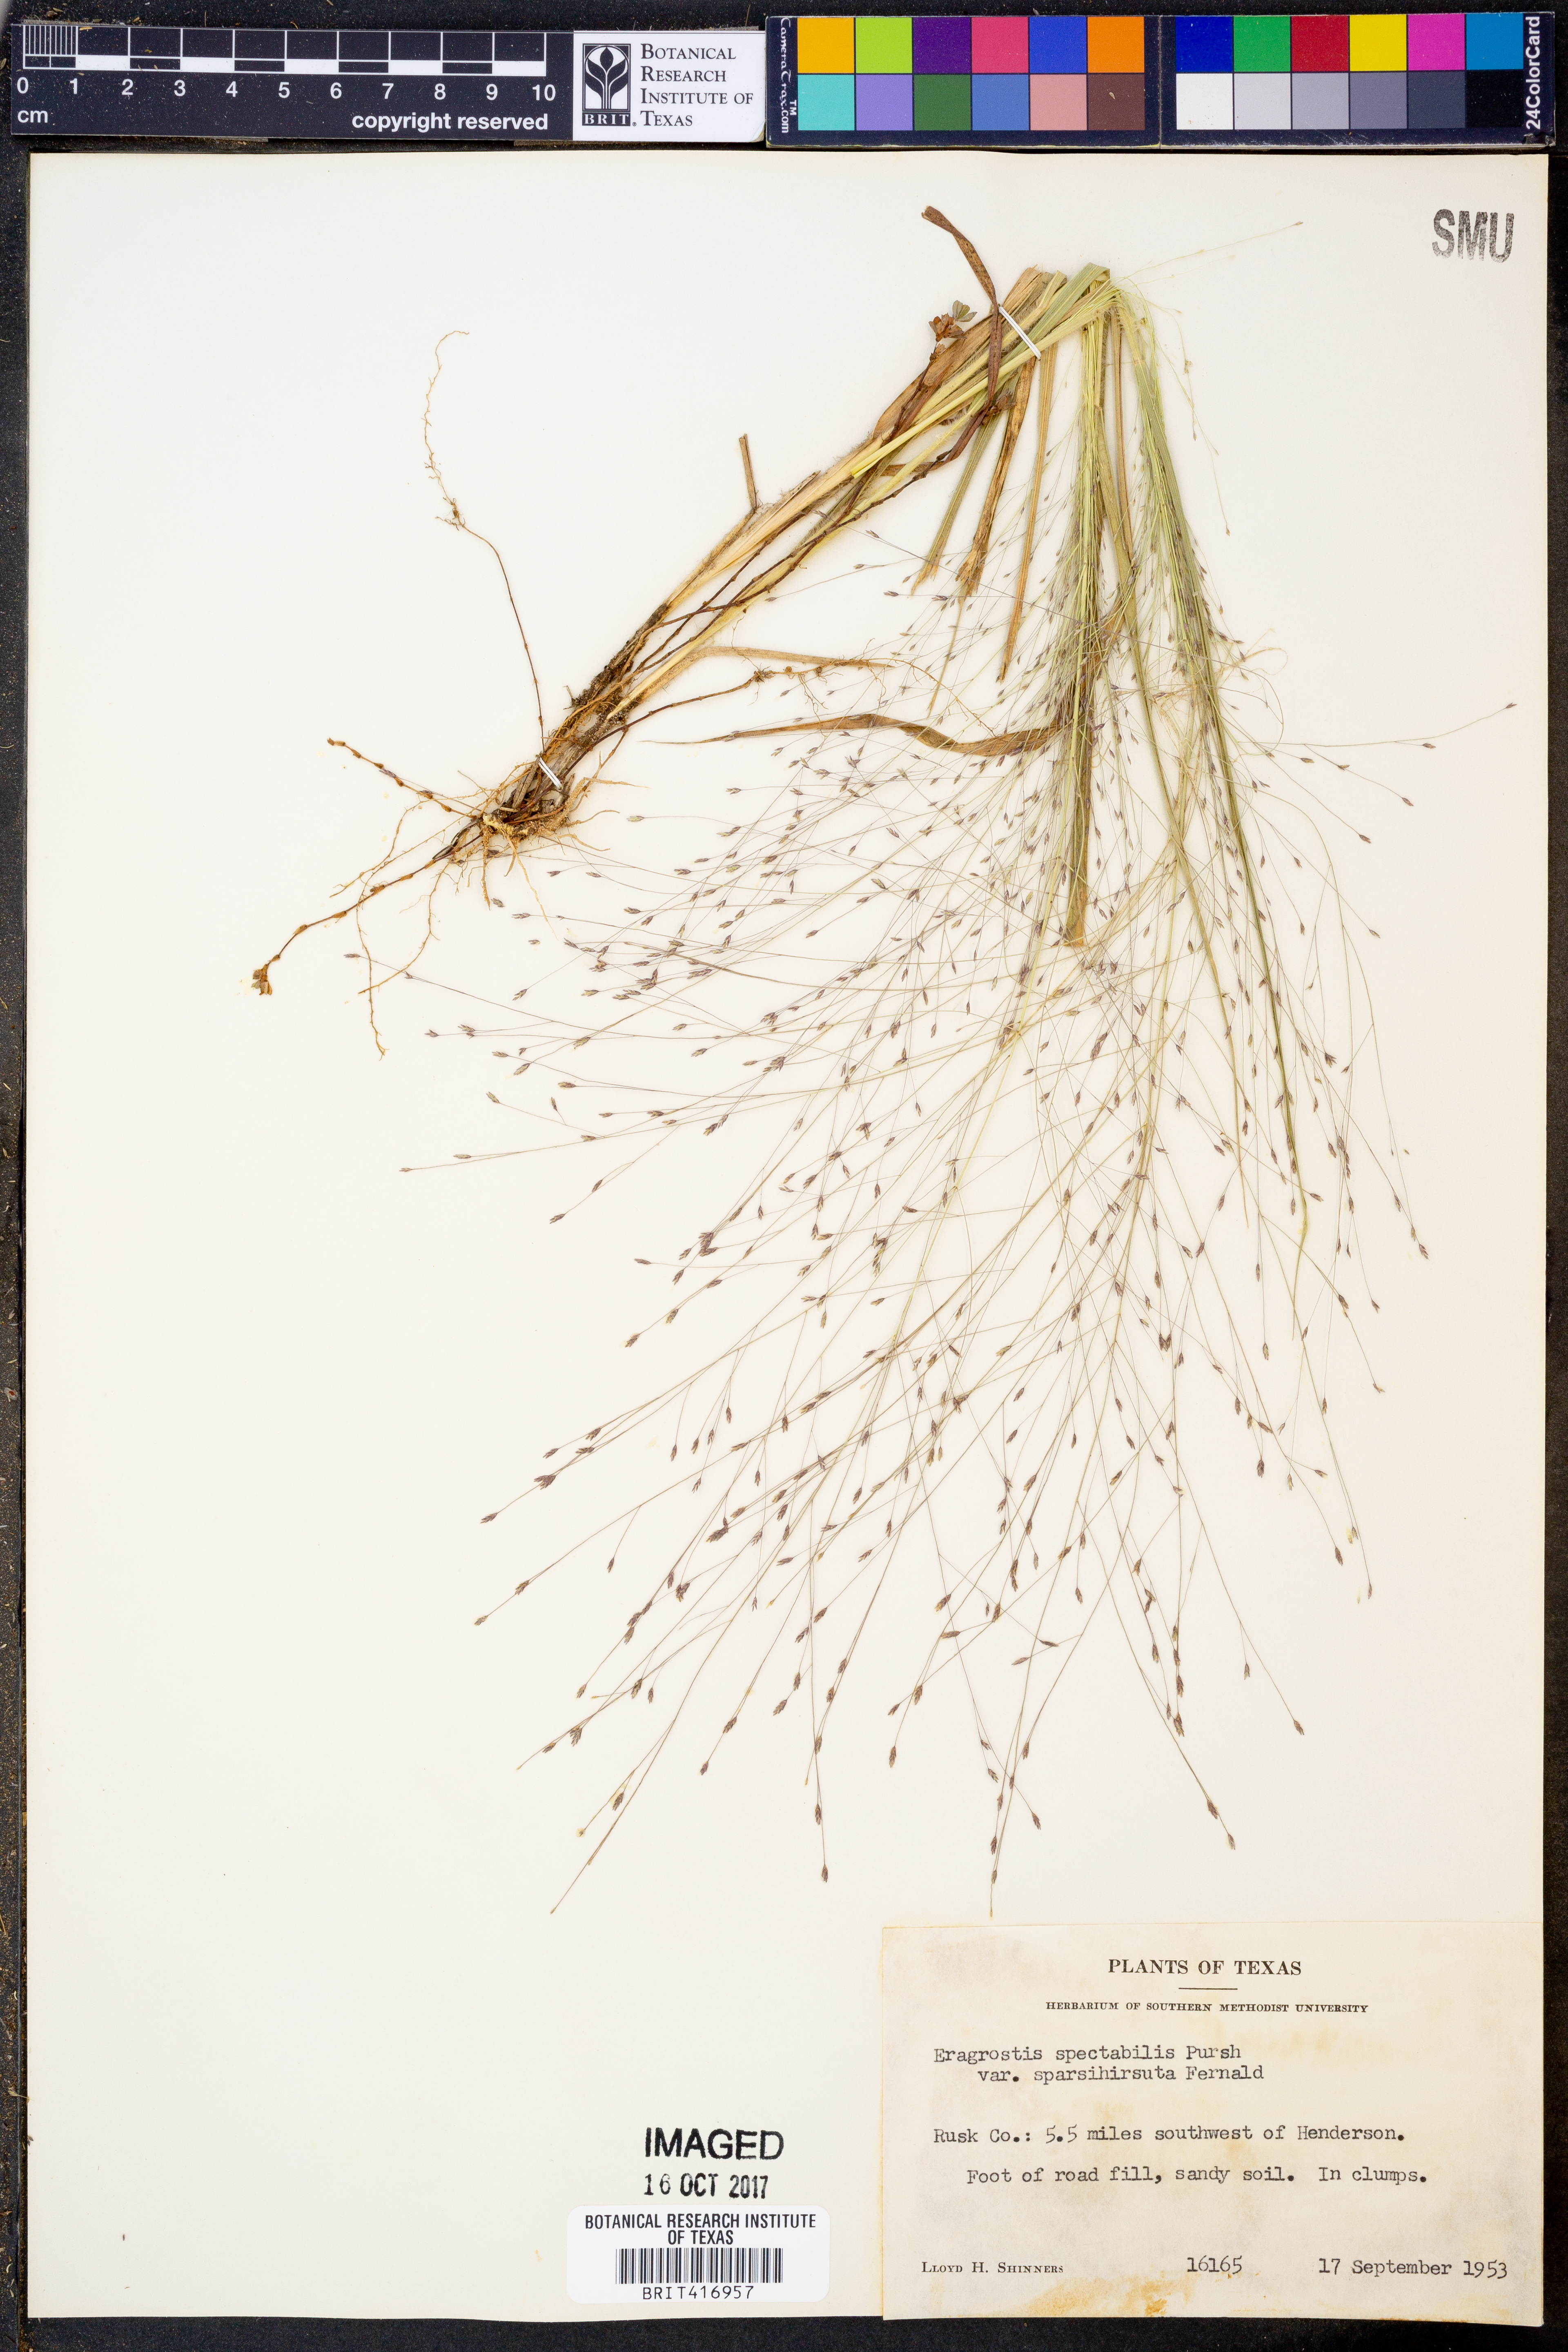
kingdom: Plantae
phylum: Tracheophyta
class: Liliopsida
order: Poales
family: Poaceae
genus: Eragrostis
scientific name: Eragrostis spectabilis
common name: Petticoat-climber
